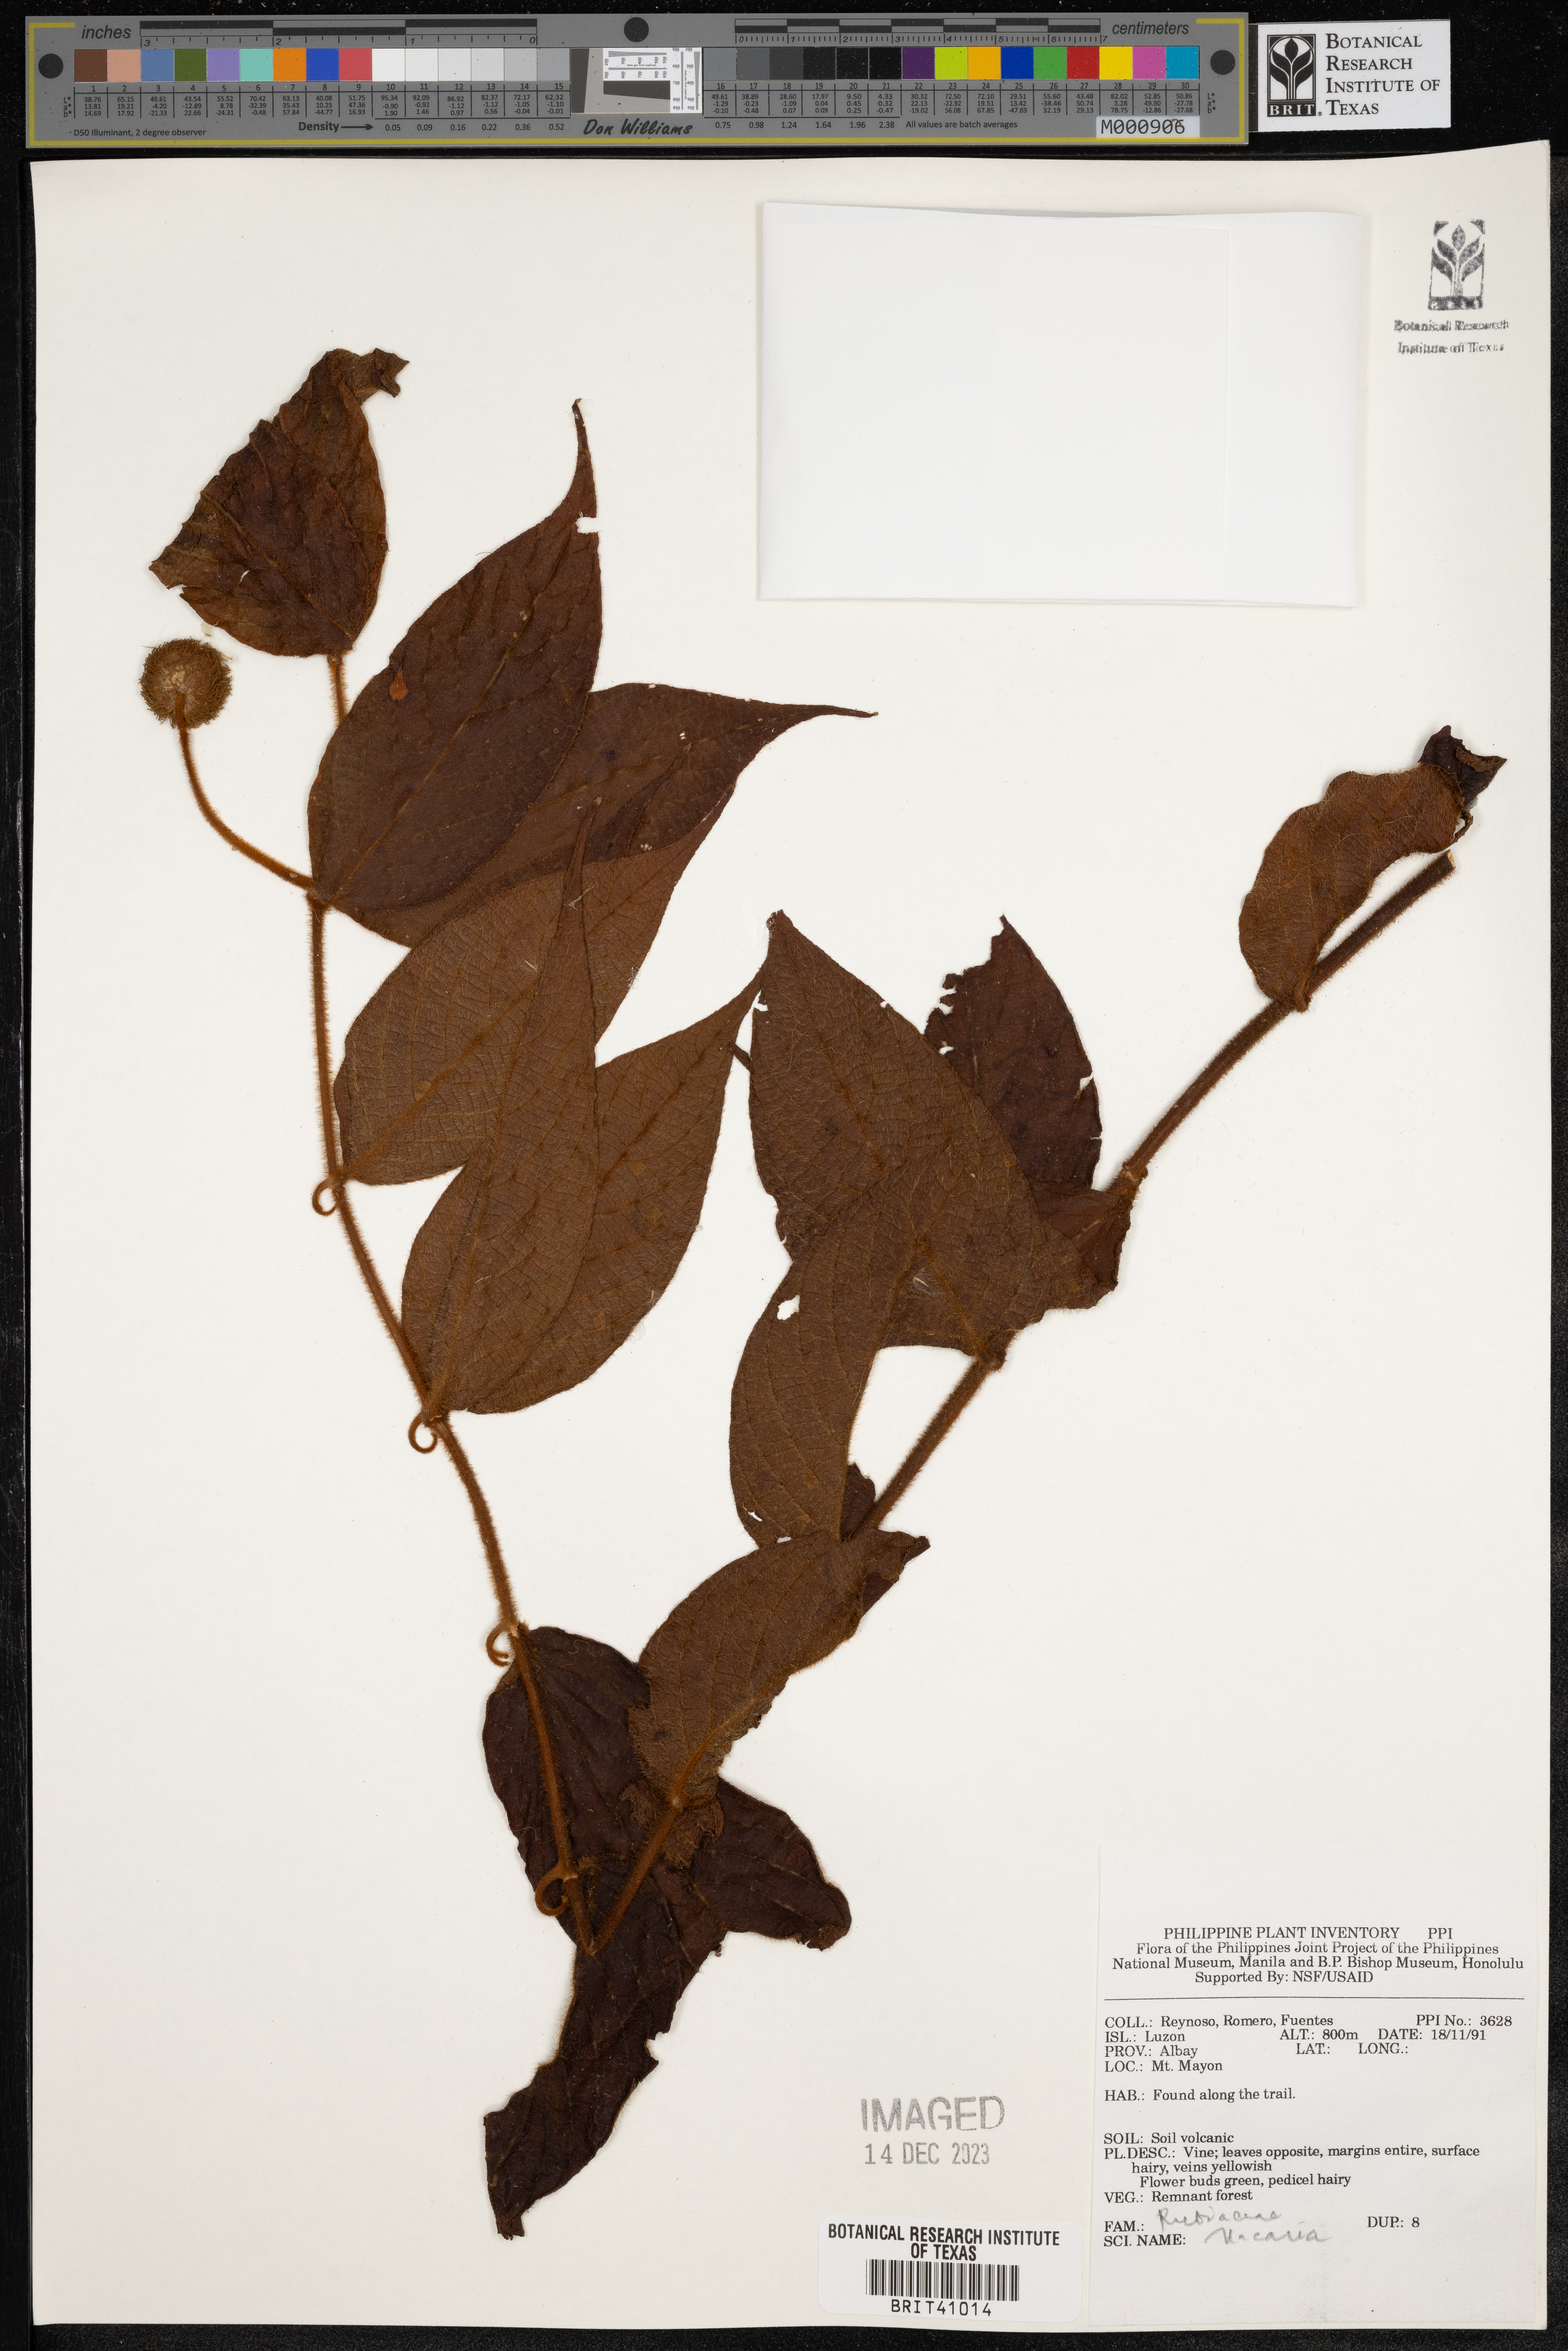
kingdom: Plantae
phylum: Tracheophyta
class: Magnoliopsida
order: Gentianales
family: Rubiaceae
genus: Uncaria
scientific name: Uncaria
